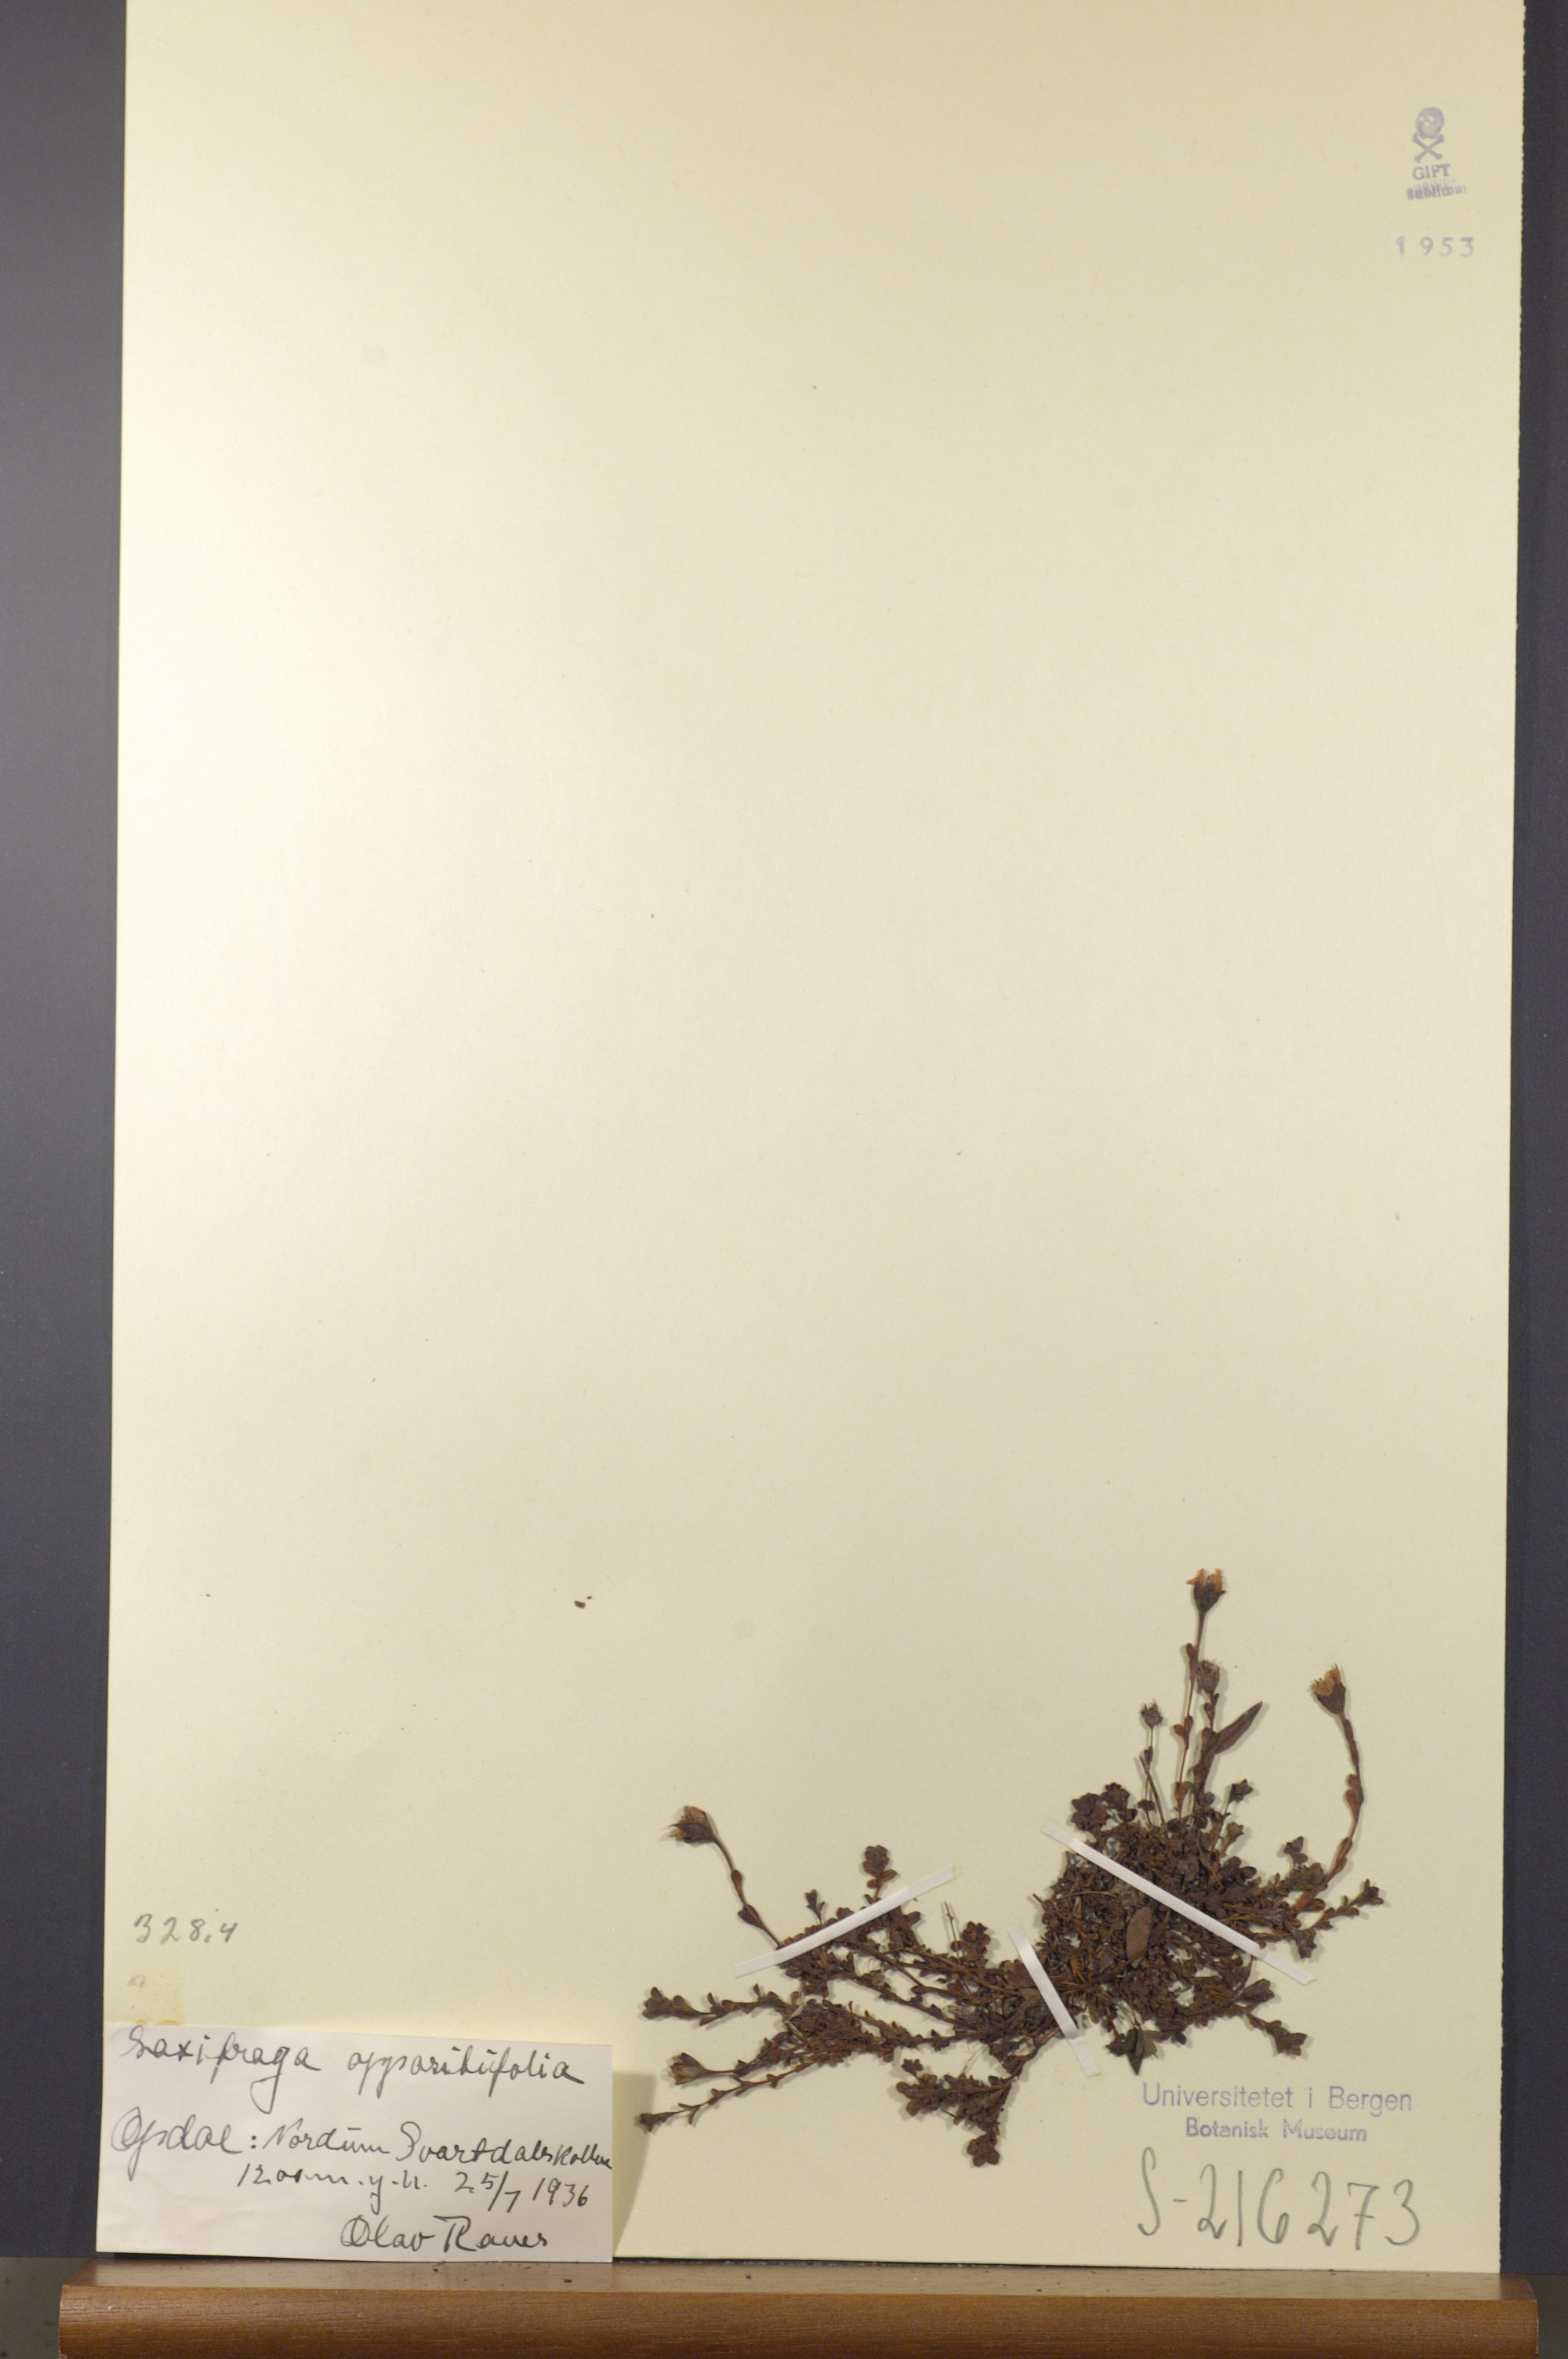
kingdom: Plantae
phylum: Tracheophyta
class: Magnoliopsida
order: Saxifragales
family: Saxifragaceae
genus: Saxifraga
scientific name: Saxifraga oppositifolia
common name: Purple saxifrage
